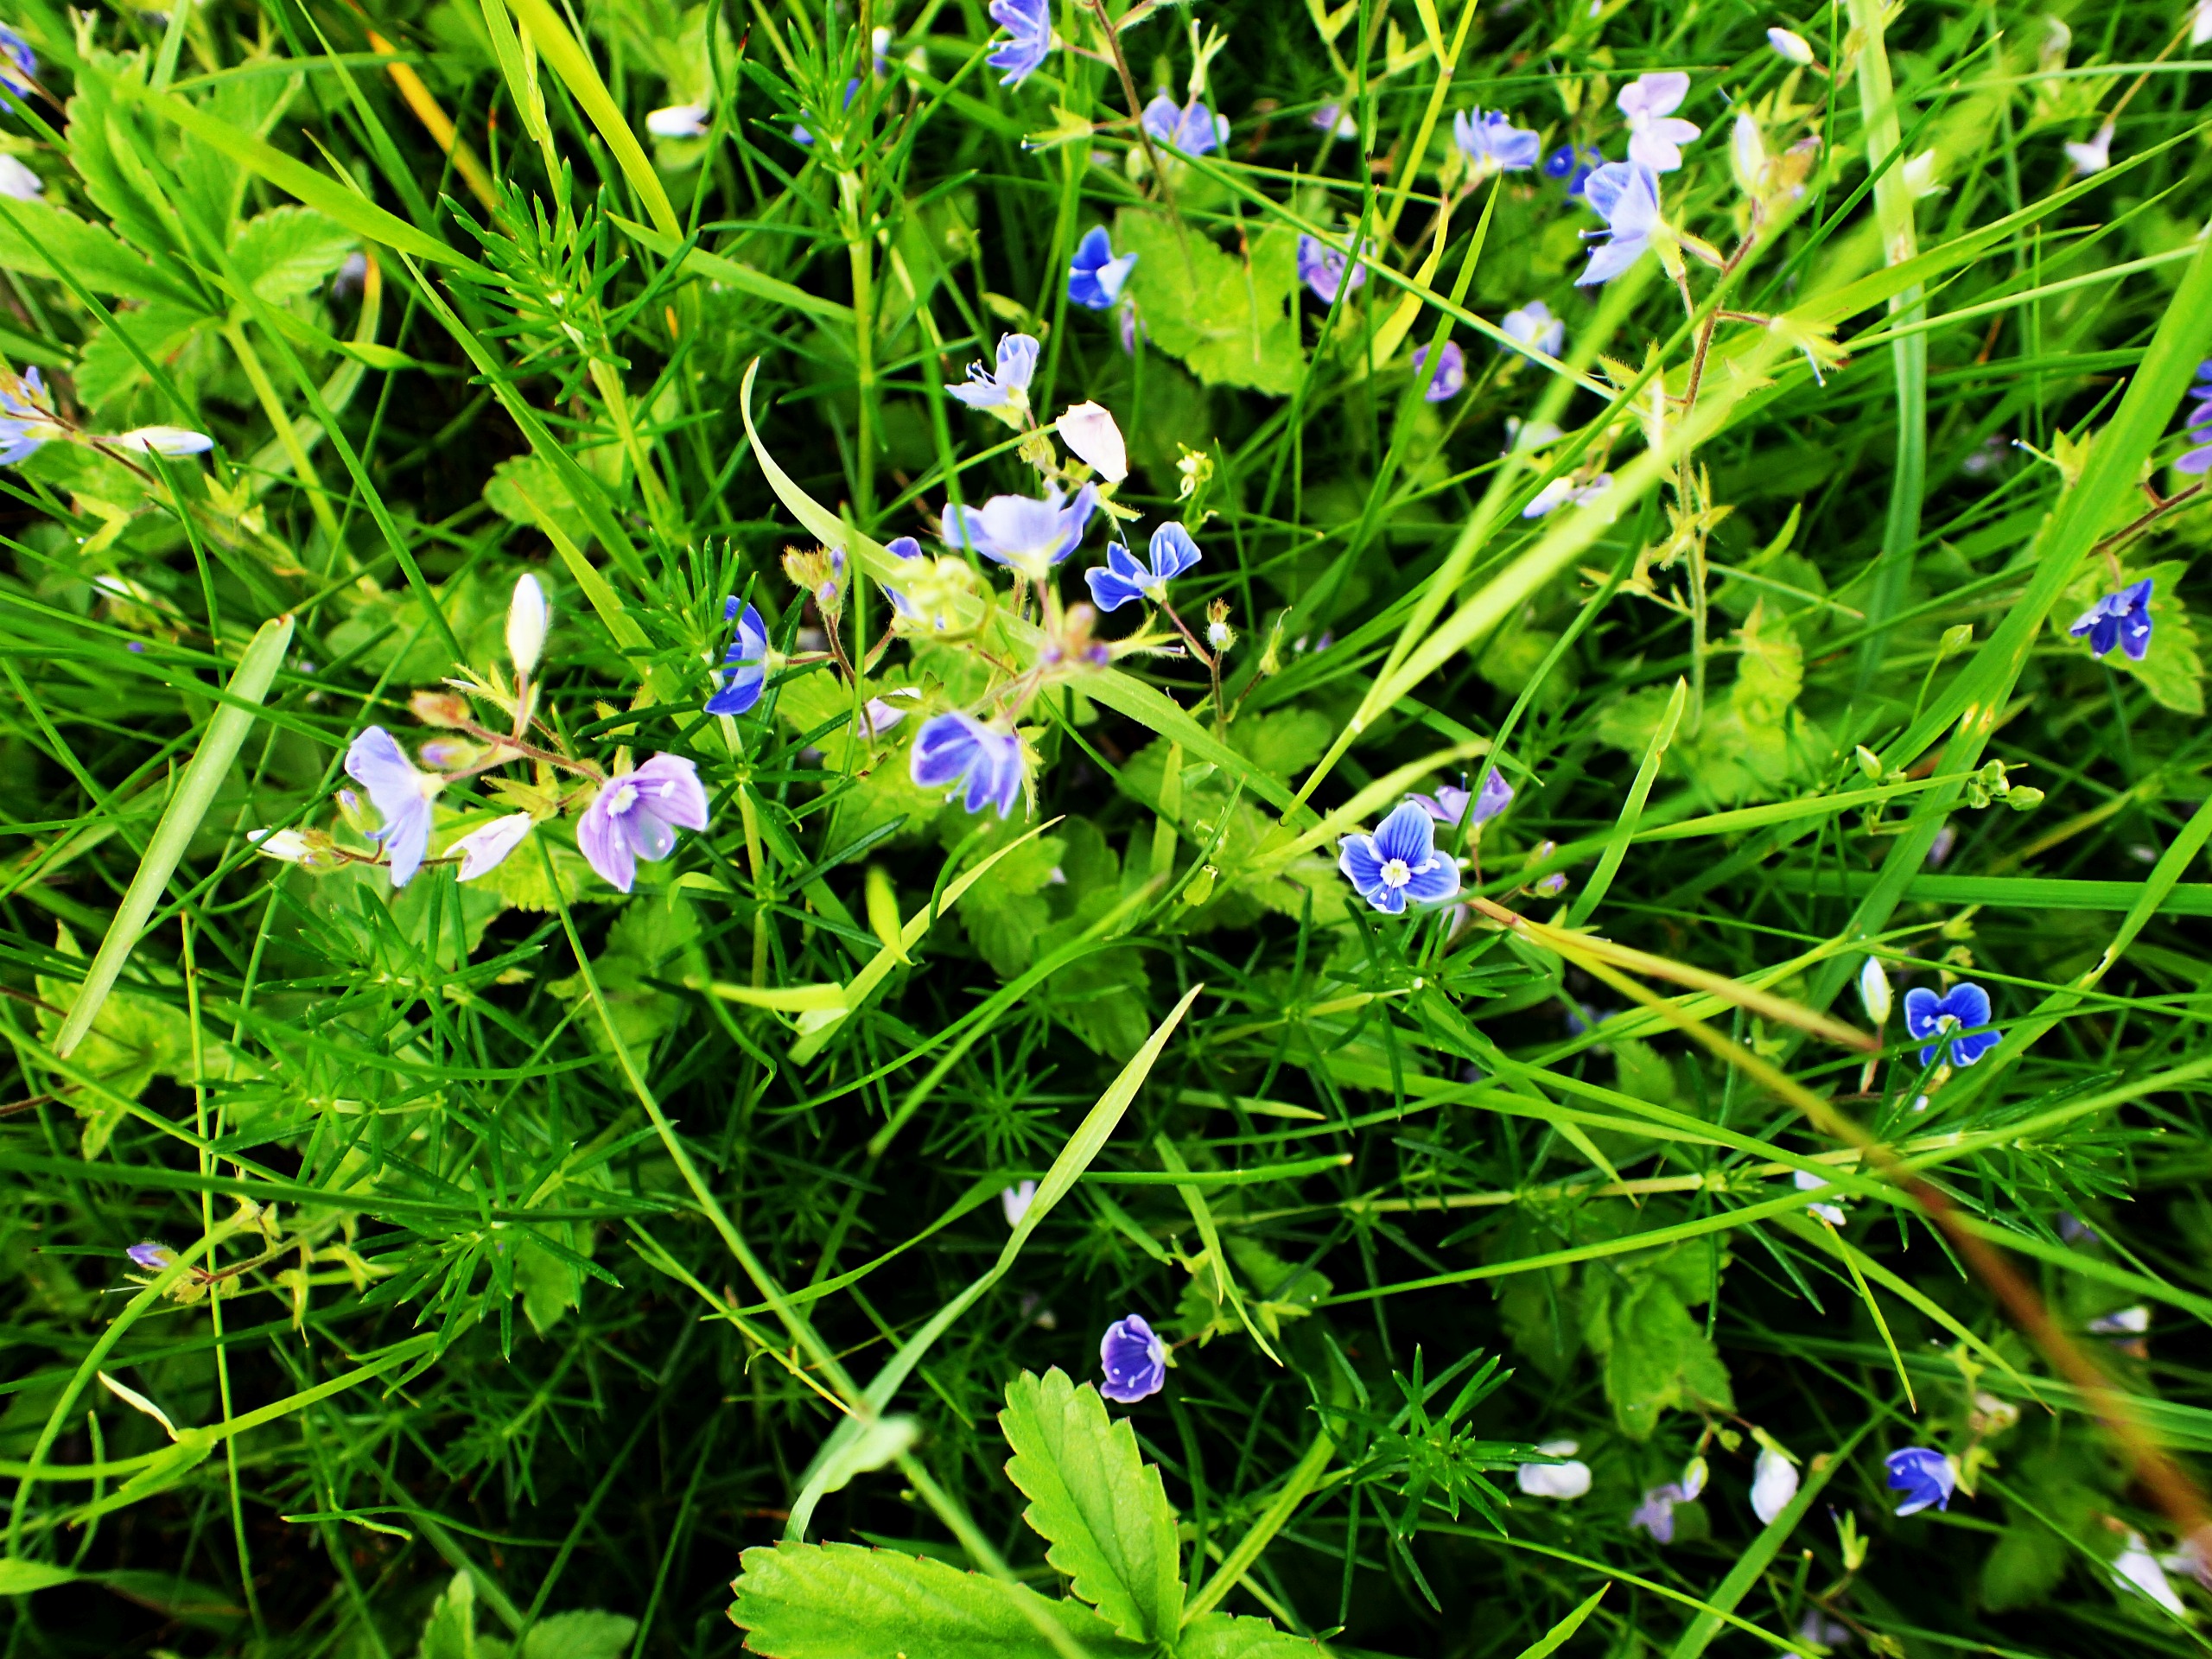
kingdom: Plantae
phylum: Tracheophyta
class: Magnoliopsida
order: Lamiales
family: Plantaginaceae
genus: Veronica
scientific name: Veronica chamaedrys
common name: Tveskægget ærenpris
